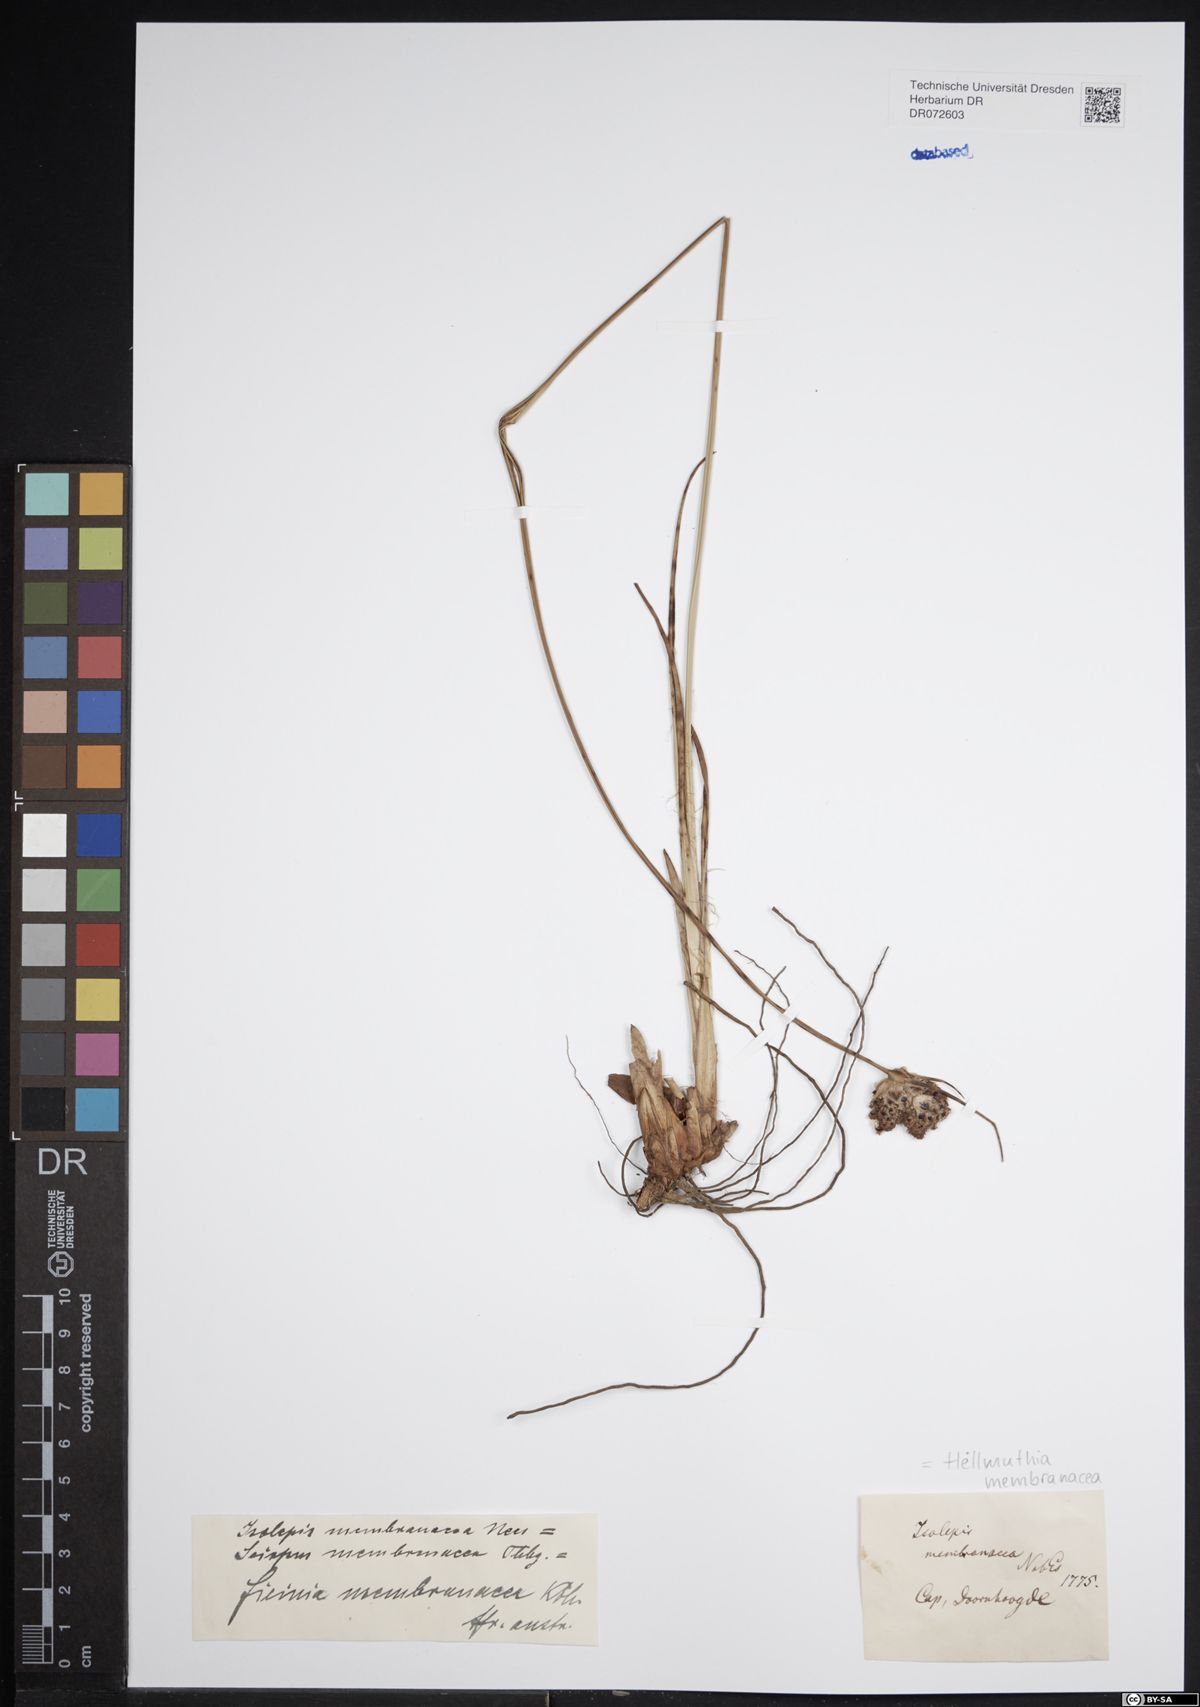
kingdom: Plantae
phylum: Tracheophyta
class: Liliopsida
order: Poales
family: Cyperaceae
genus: Hellmuthia
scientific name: Hellmuthia membranacea
